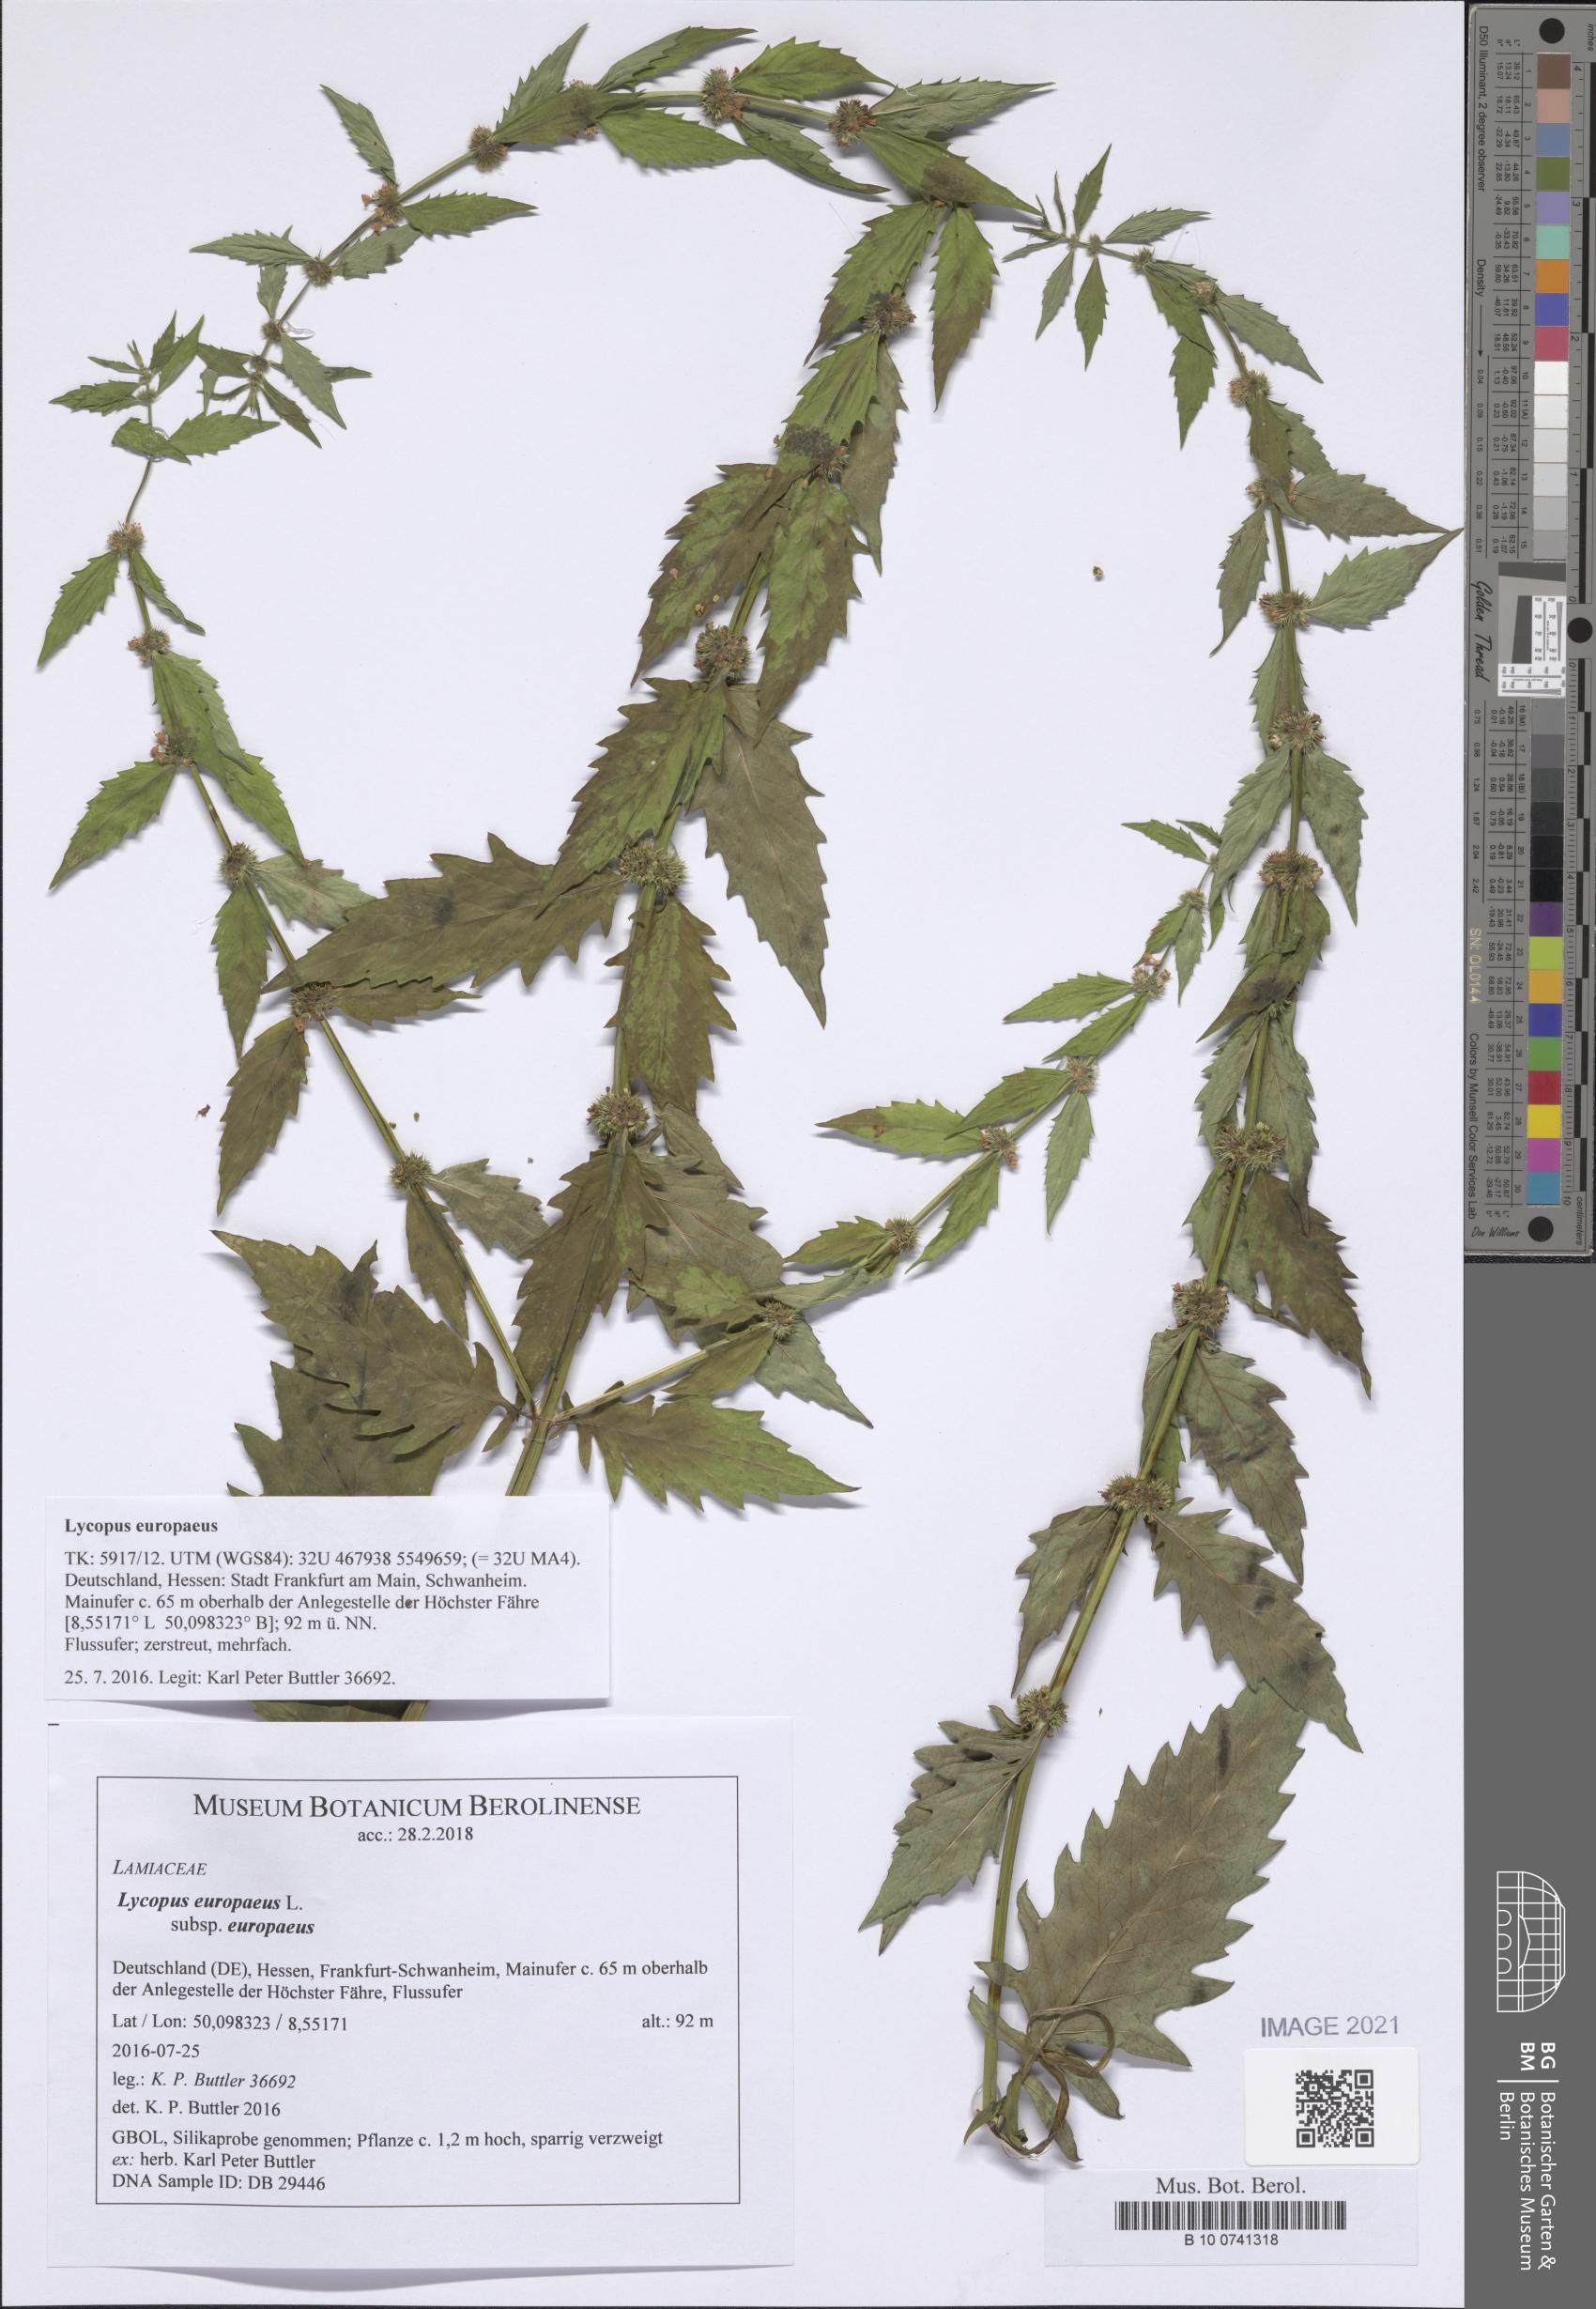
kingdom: Plantae
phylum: Tracheophyta
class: Magnoliopsida
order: Lamiales
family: Lamiaceae
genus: Lycopus
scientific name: Lycopus europaeus
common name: European bugleweed
